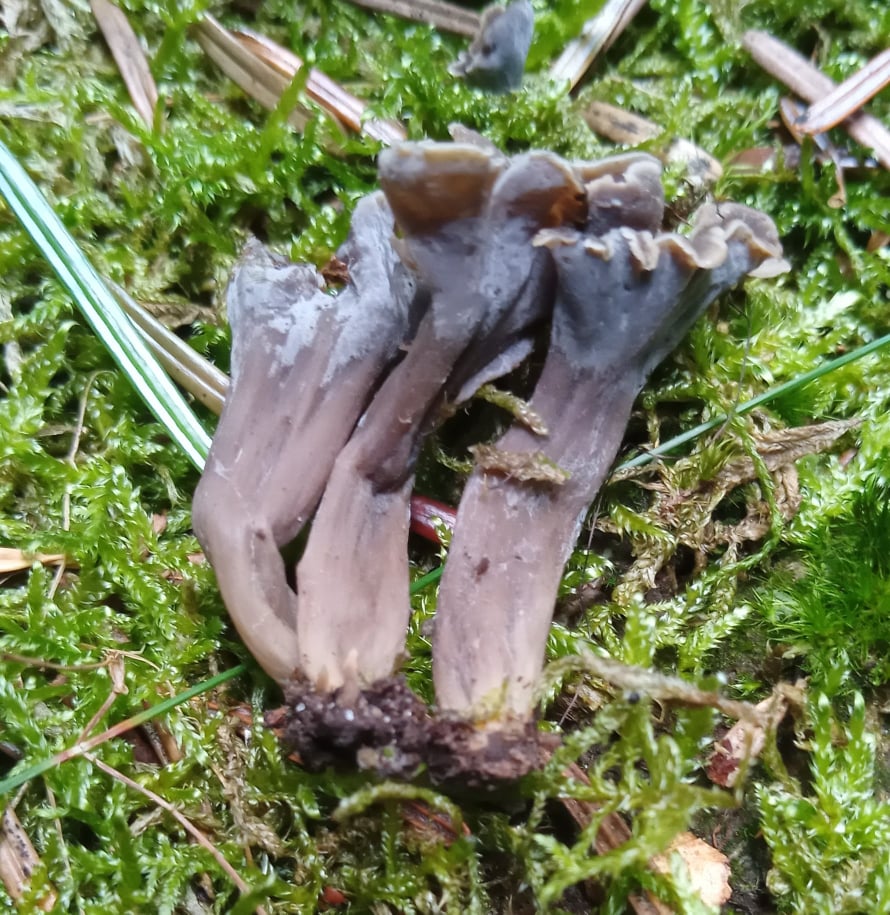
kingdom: Fungi
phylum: Basidiomycota
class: Agaricomycetes
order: Cantharellales
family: Hydnaceae
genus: Craterellus
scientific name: Craterellus undulatus
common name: liden kantarel
